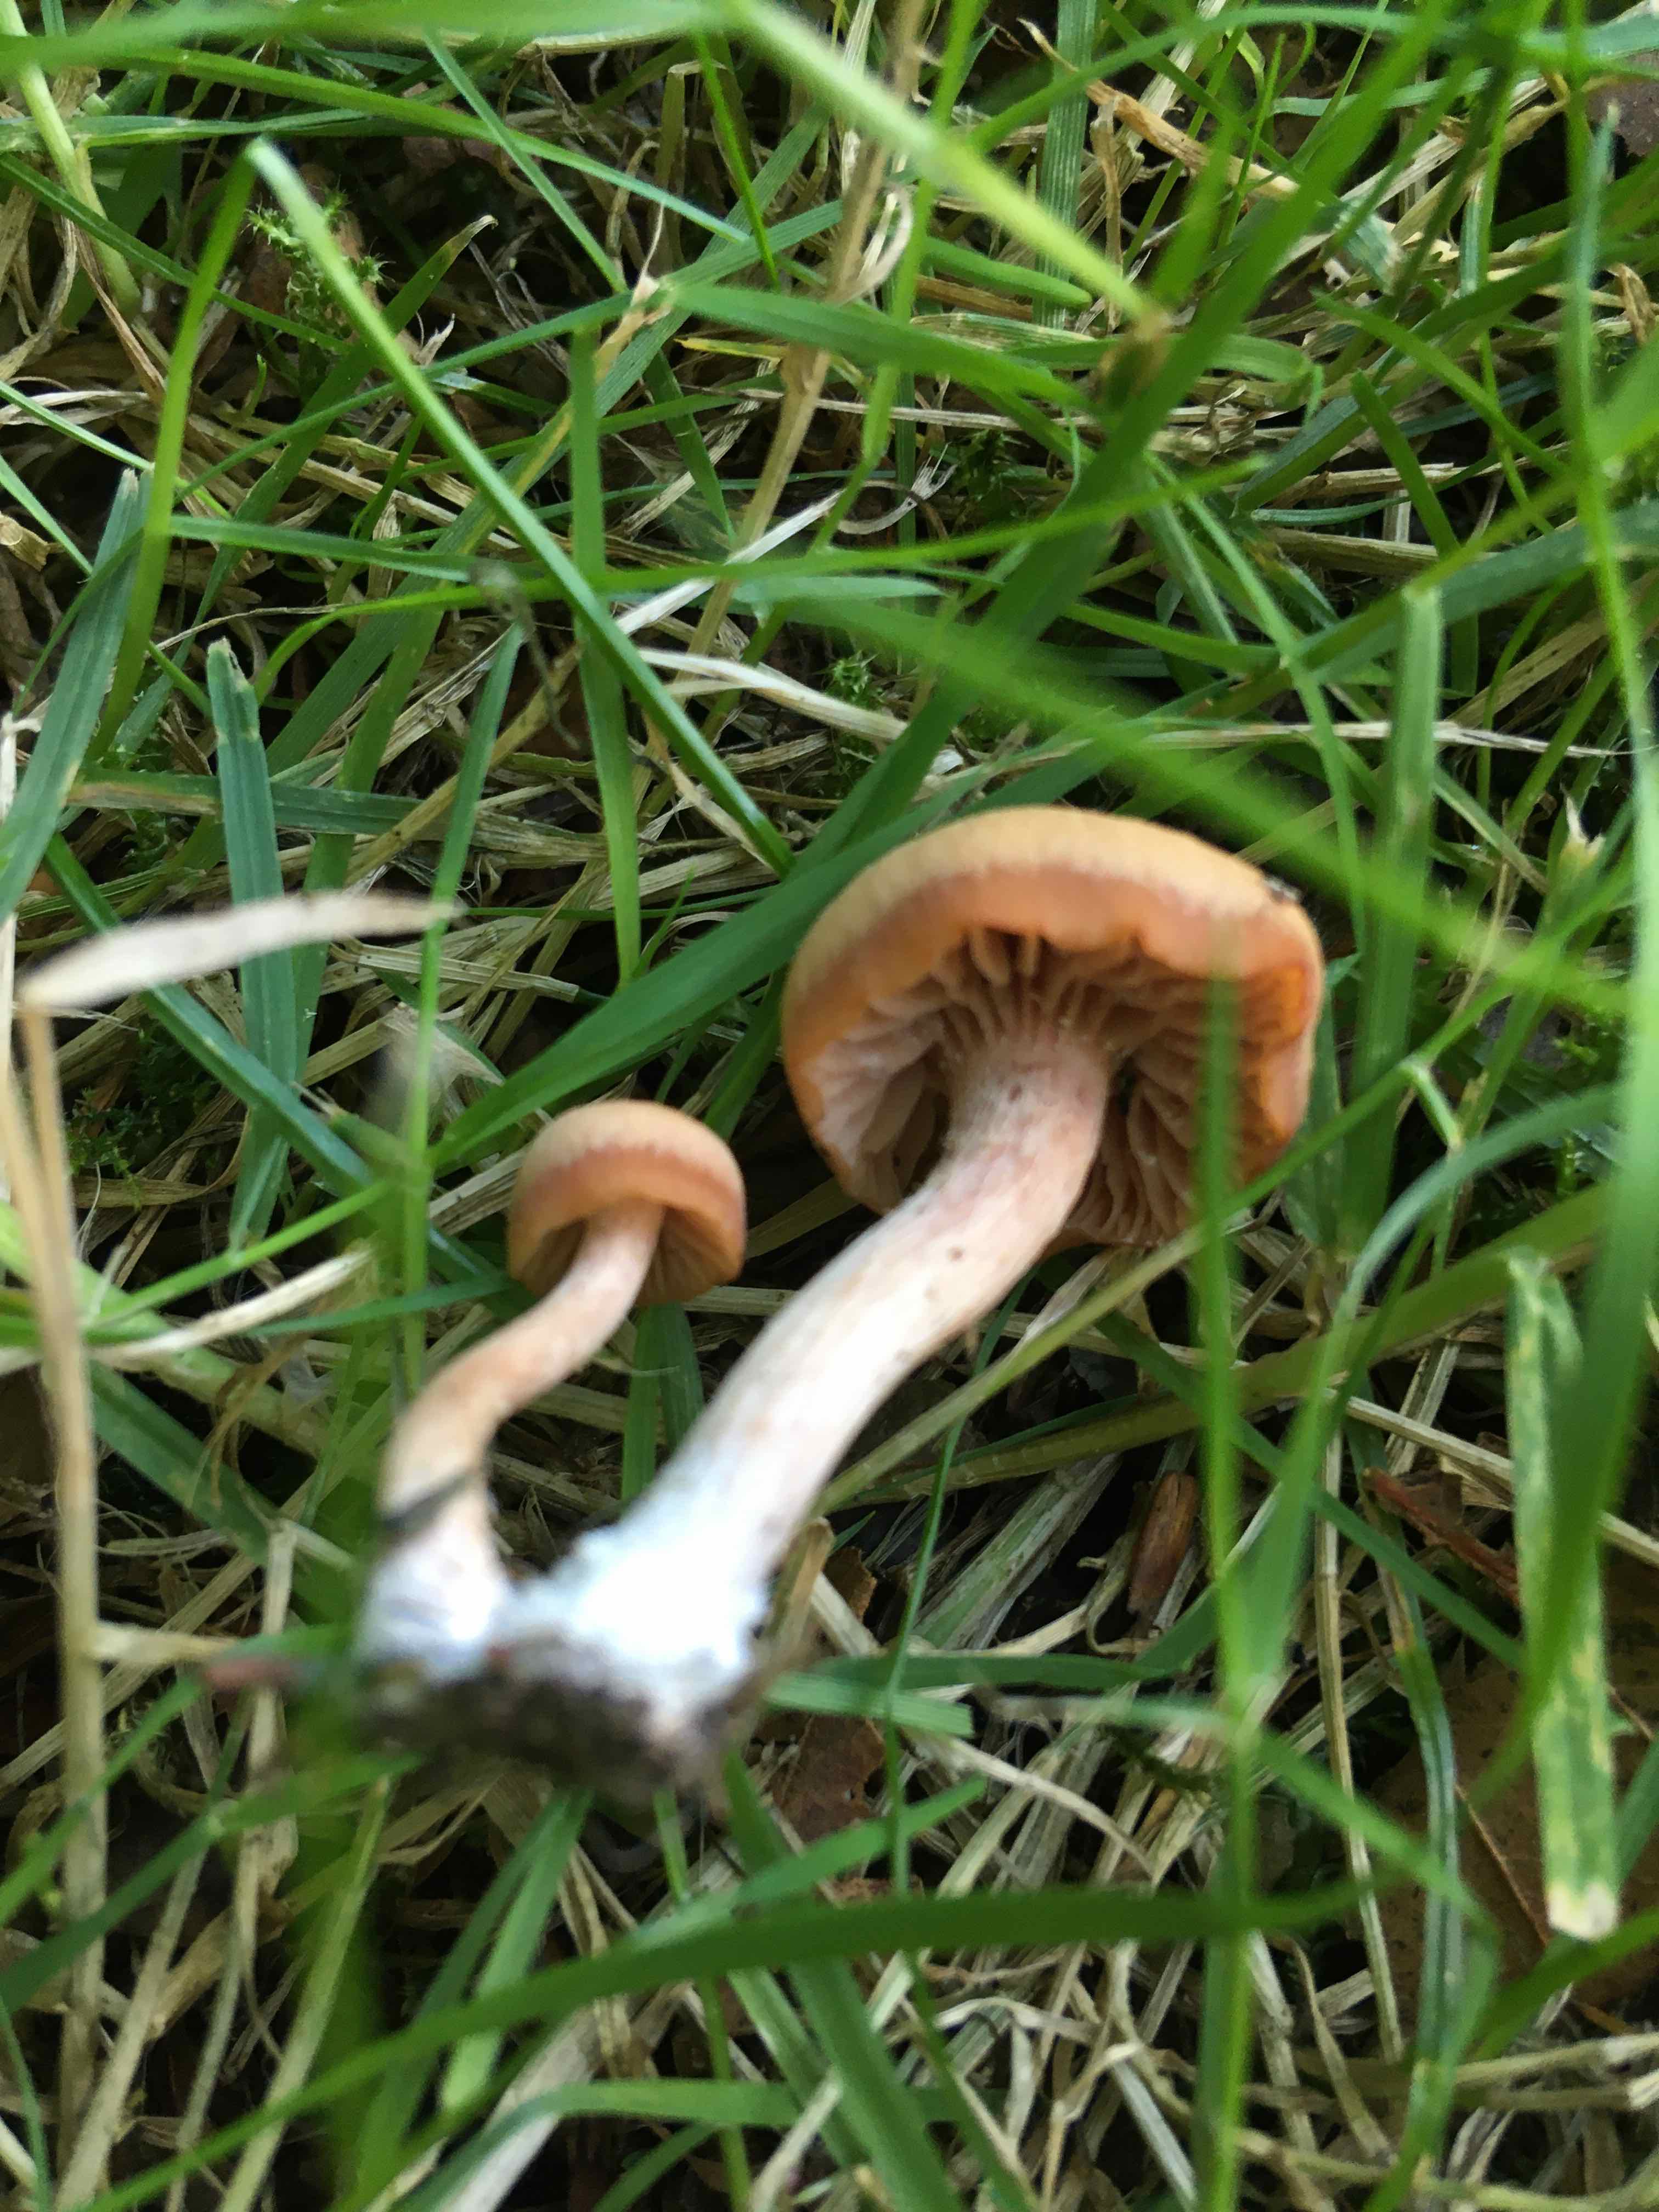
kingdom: Fungi
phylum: Basidiomycota
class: Agaricomycetes
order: Agaricales
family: Hydnangiaceae
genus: Laccaria
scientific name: Laccaria laccata
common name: rød ametysthat
